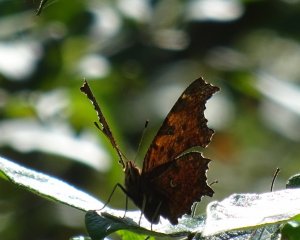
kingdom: Animalia
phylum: Arthropoda
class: Insecta
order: Lepidoptera
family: Nymphalidae
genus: Polygonia
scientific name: Polygonia comma
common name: Eastern Comma
